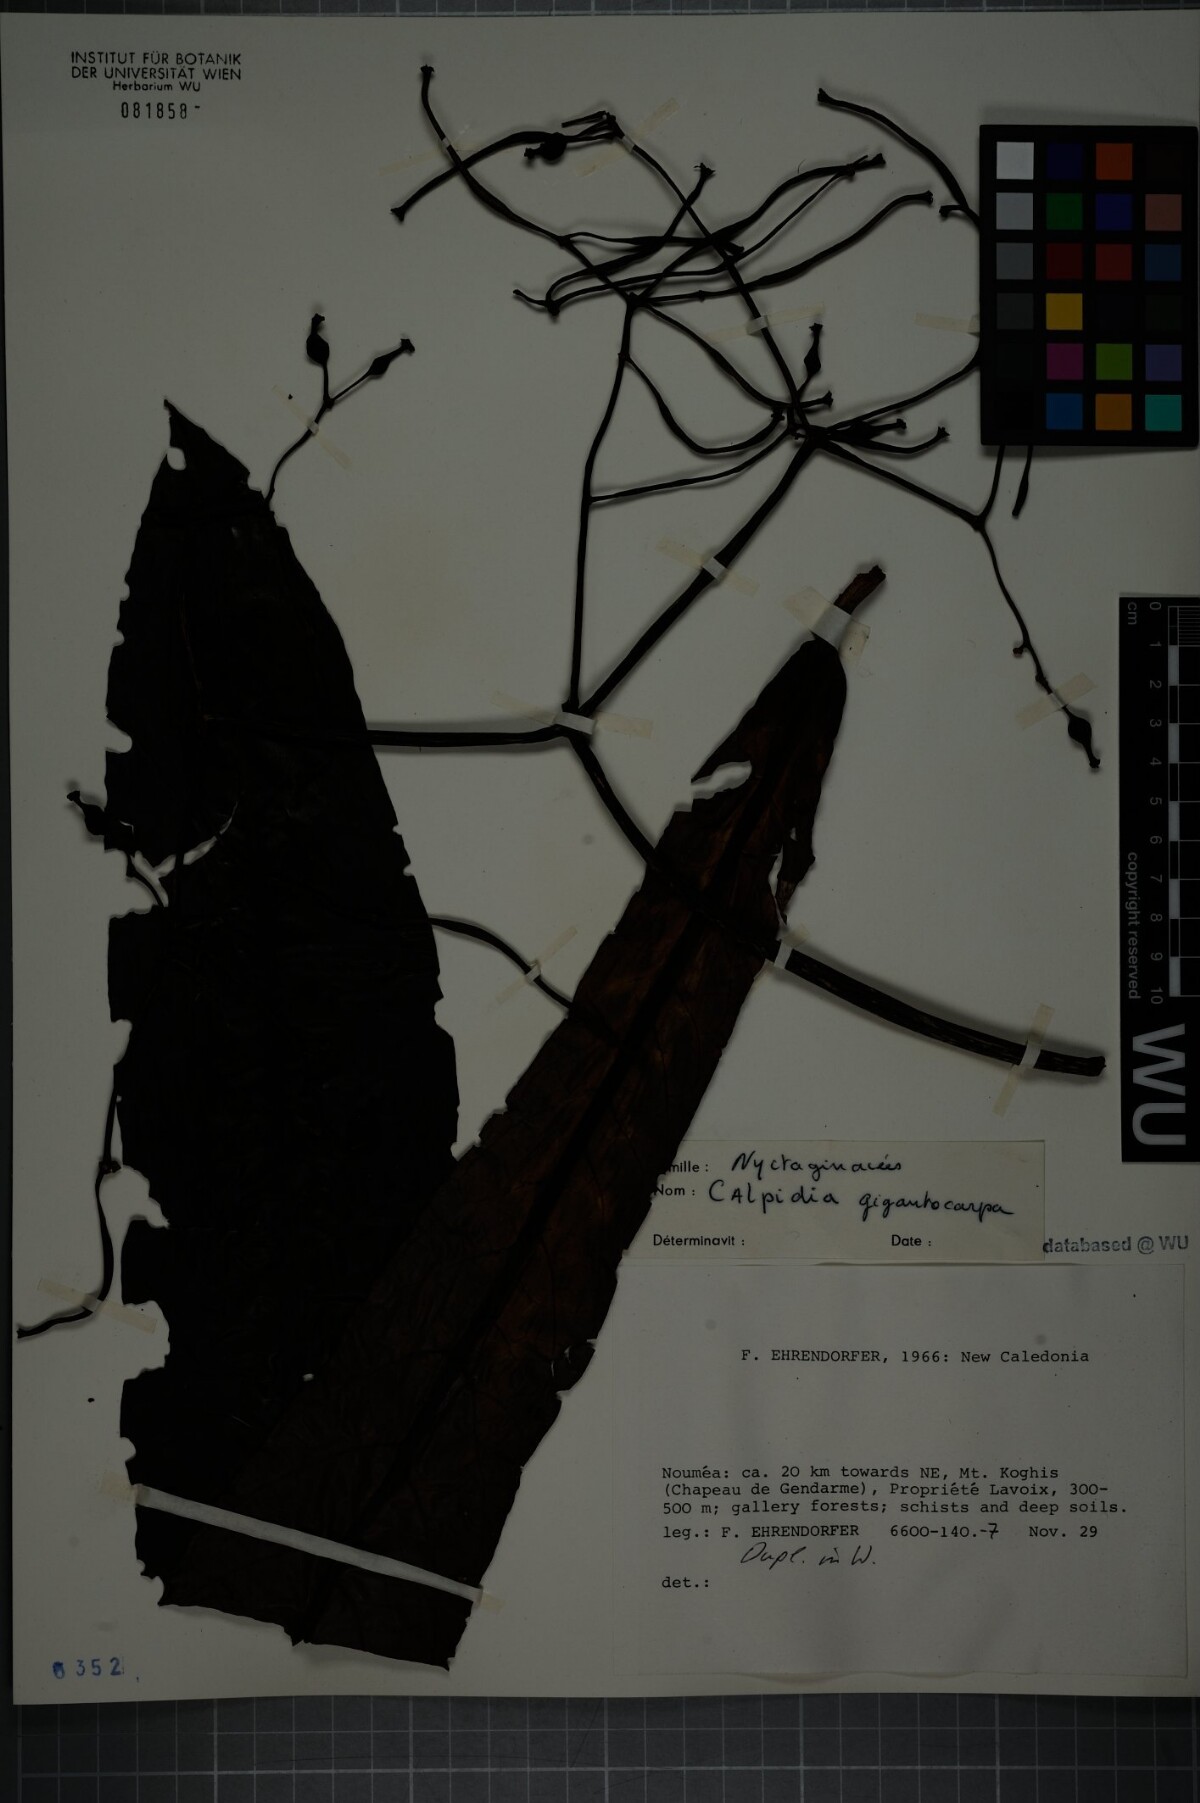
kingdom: Plantae
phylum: Tracheophyta
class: Magnoliopsida
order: Caryophyllales
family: Nyctaginaceae
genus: Ceodes
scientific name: Ceodes gigantocarpa
